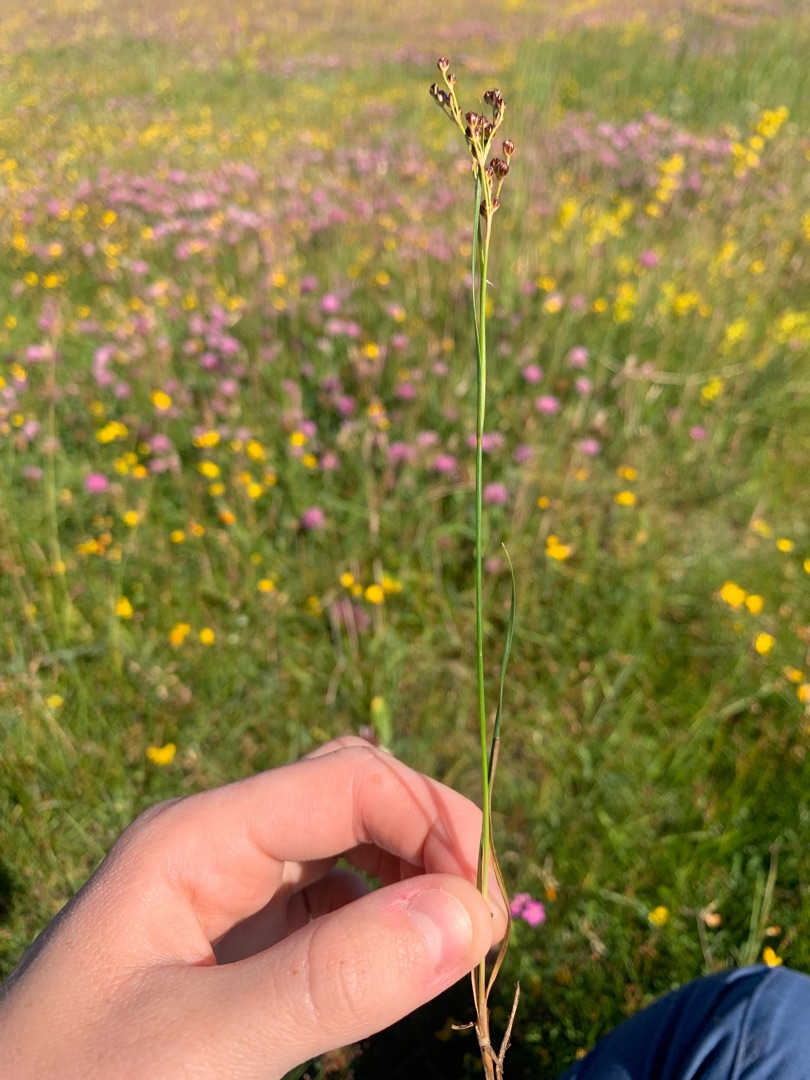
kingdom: Plantae
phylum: Tracheophyta
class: Liliopsida
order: Poales
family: Juncaceae
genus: Juncus
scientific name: Juncus gerardi
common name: Harril
